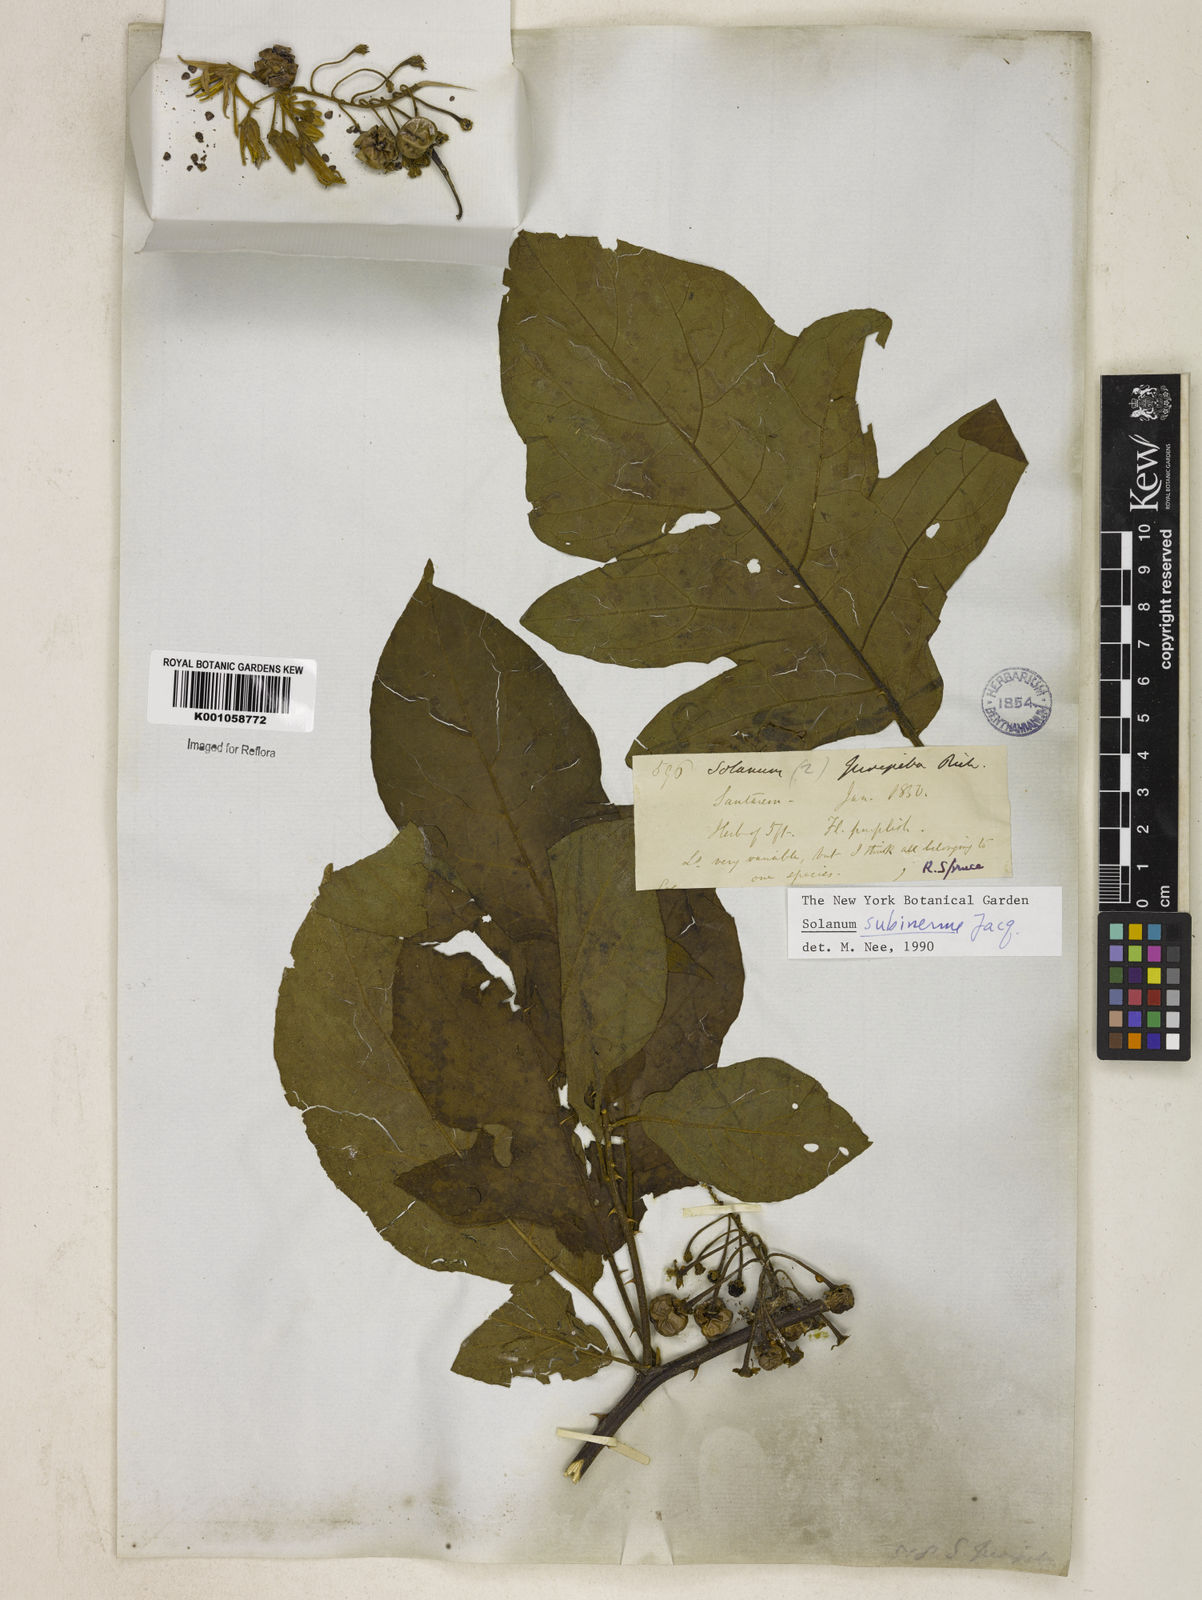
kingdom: Plantae
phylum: Tracheophyta
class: Magnoliopsida
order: Solanales
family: Solanaceae
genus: Solanum
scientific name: Solanum subinerme
